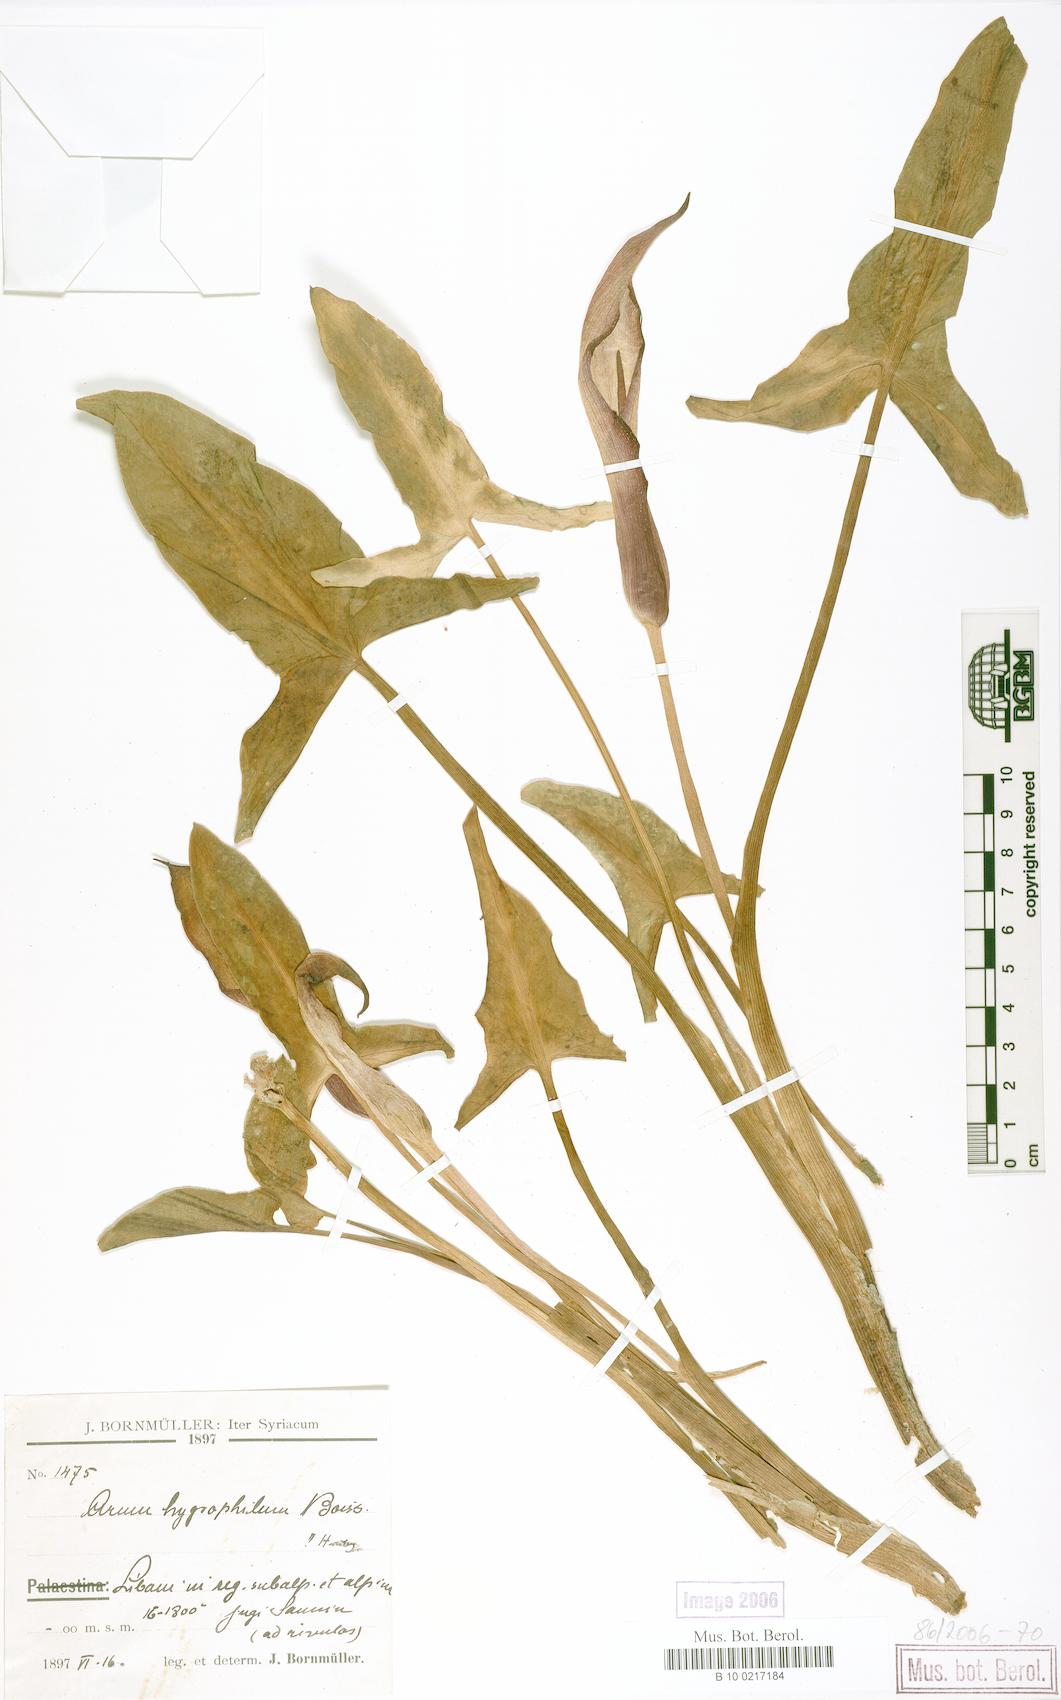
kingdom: Plantae
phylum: Tracheophyta
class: Liliopsida
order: Alismatales
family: Araceae
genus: Arum
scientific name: Arum hygrophilum
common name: Water arum
